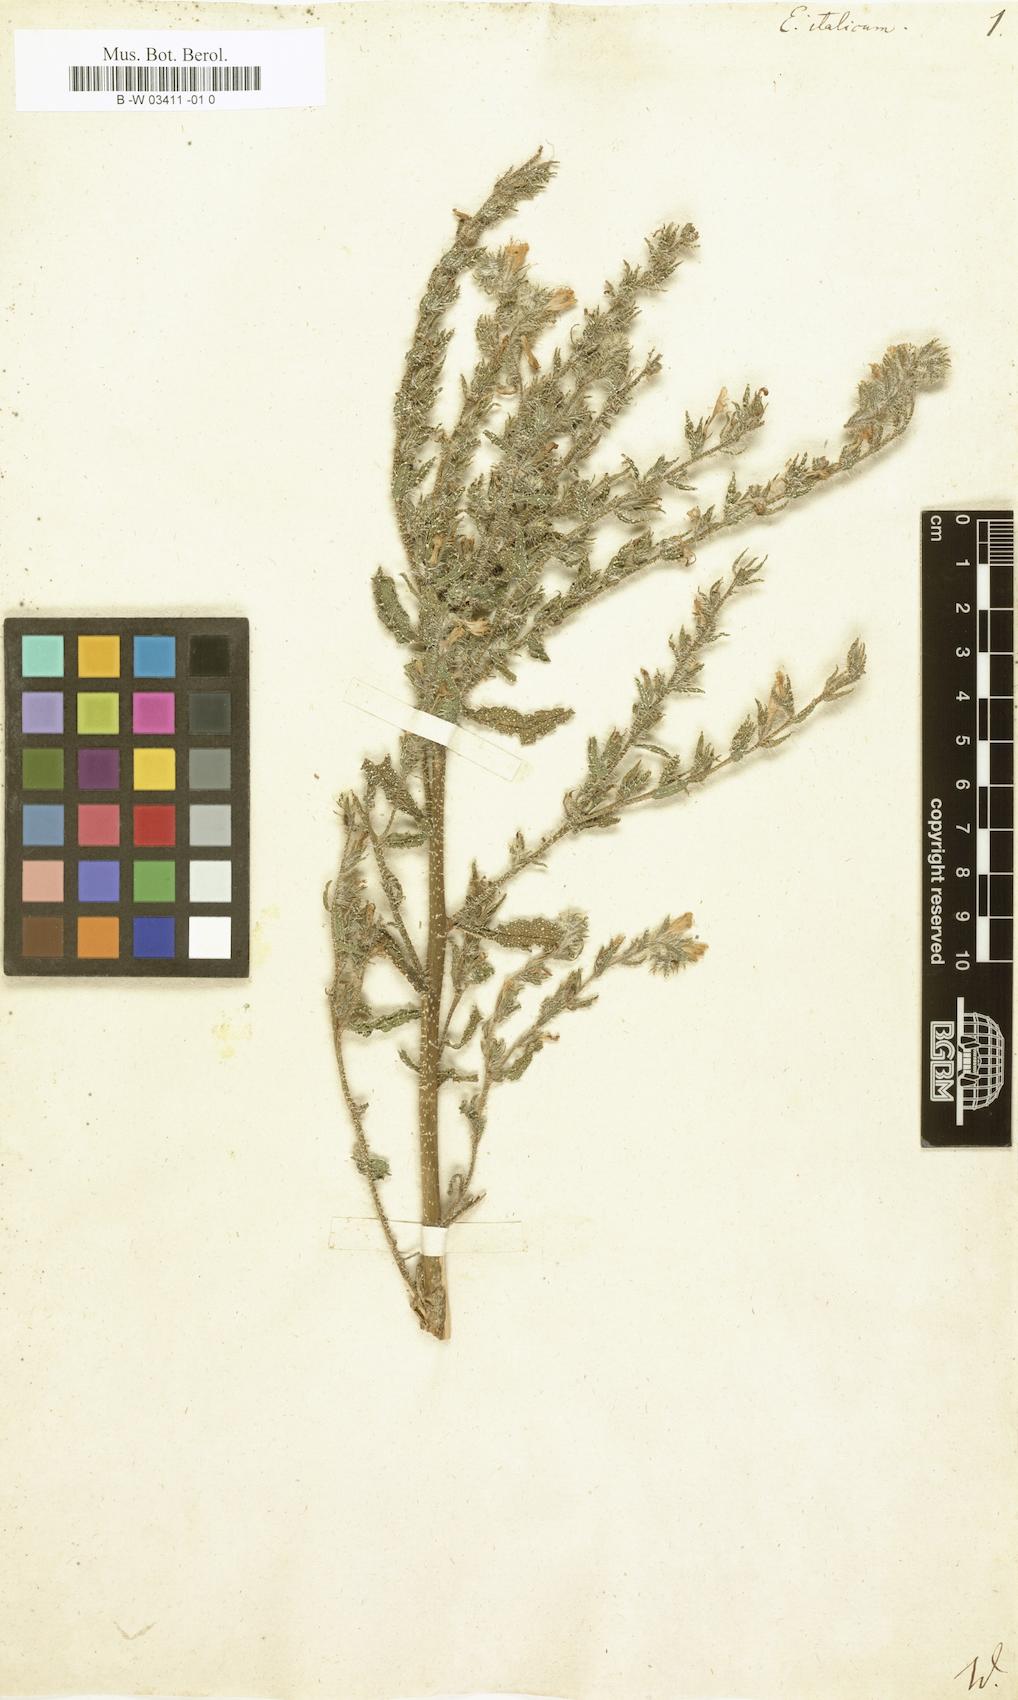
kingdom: Plantae
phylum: Tracheophyta
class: Magnoliopsida
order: Boraginales
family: Boraginaceae
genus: Echium
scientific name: Echium italicum
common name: Italian viper's bugloss
